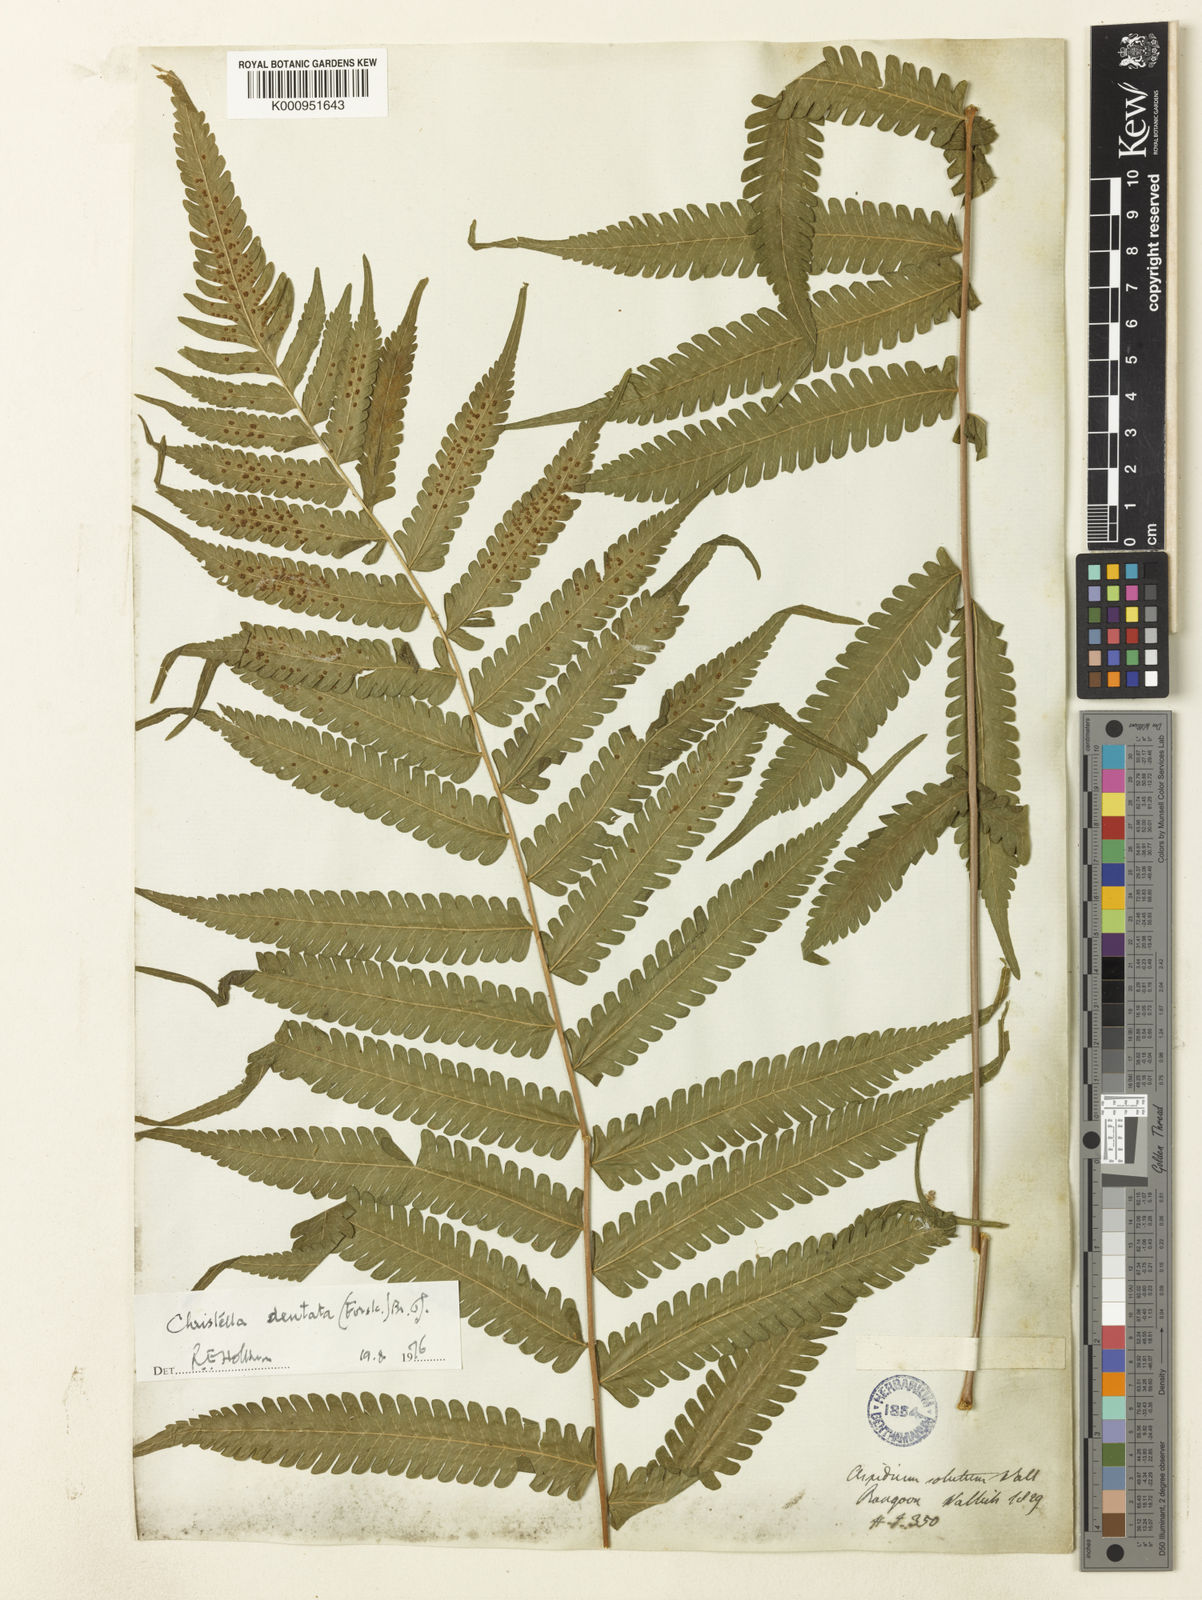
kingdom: Plantae
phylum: Tracheophyta
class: Polypodiopsida
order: Polypodiales
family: Thelypteridaceae
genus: Christella
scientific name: Christella dentata
